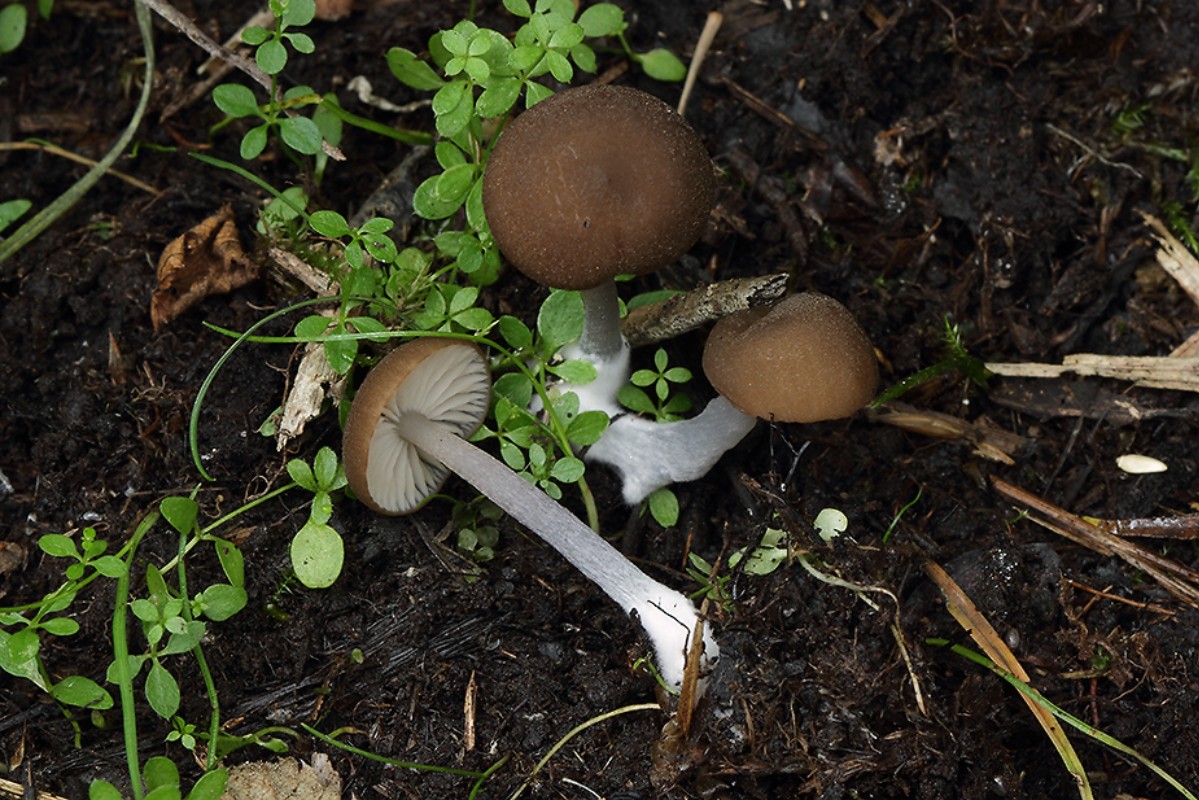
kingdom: Fungi
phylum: Basidiomycota
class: Agaricomycetes
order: Agaricales
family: Entolomataceae
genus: Entoloma
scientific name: Entoloma glaucobasis
